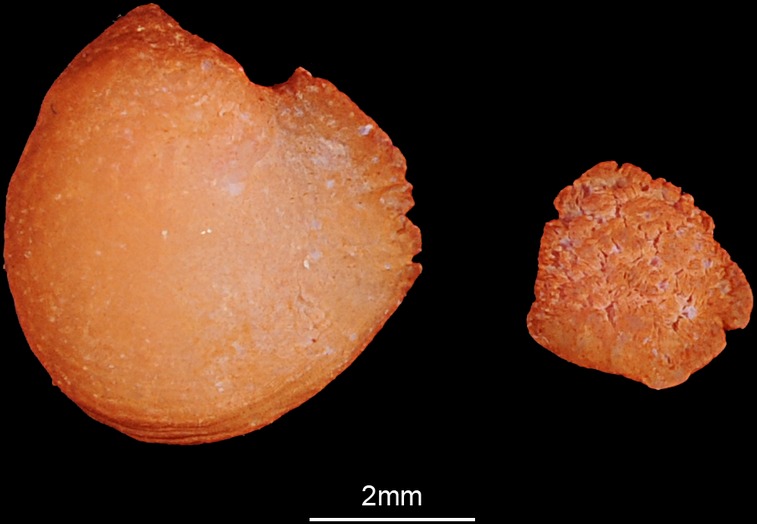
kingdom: Animalia
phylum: Chordata
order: Amiiformes
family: Amiidae
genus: Amia
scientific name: Amia calva
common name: Bowfin
